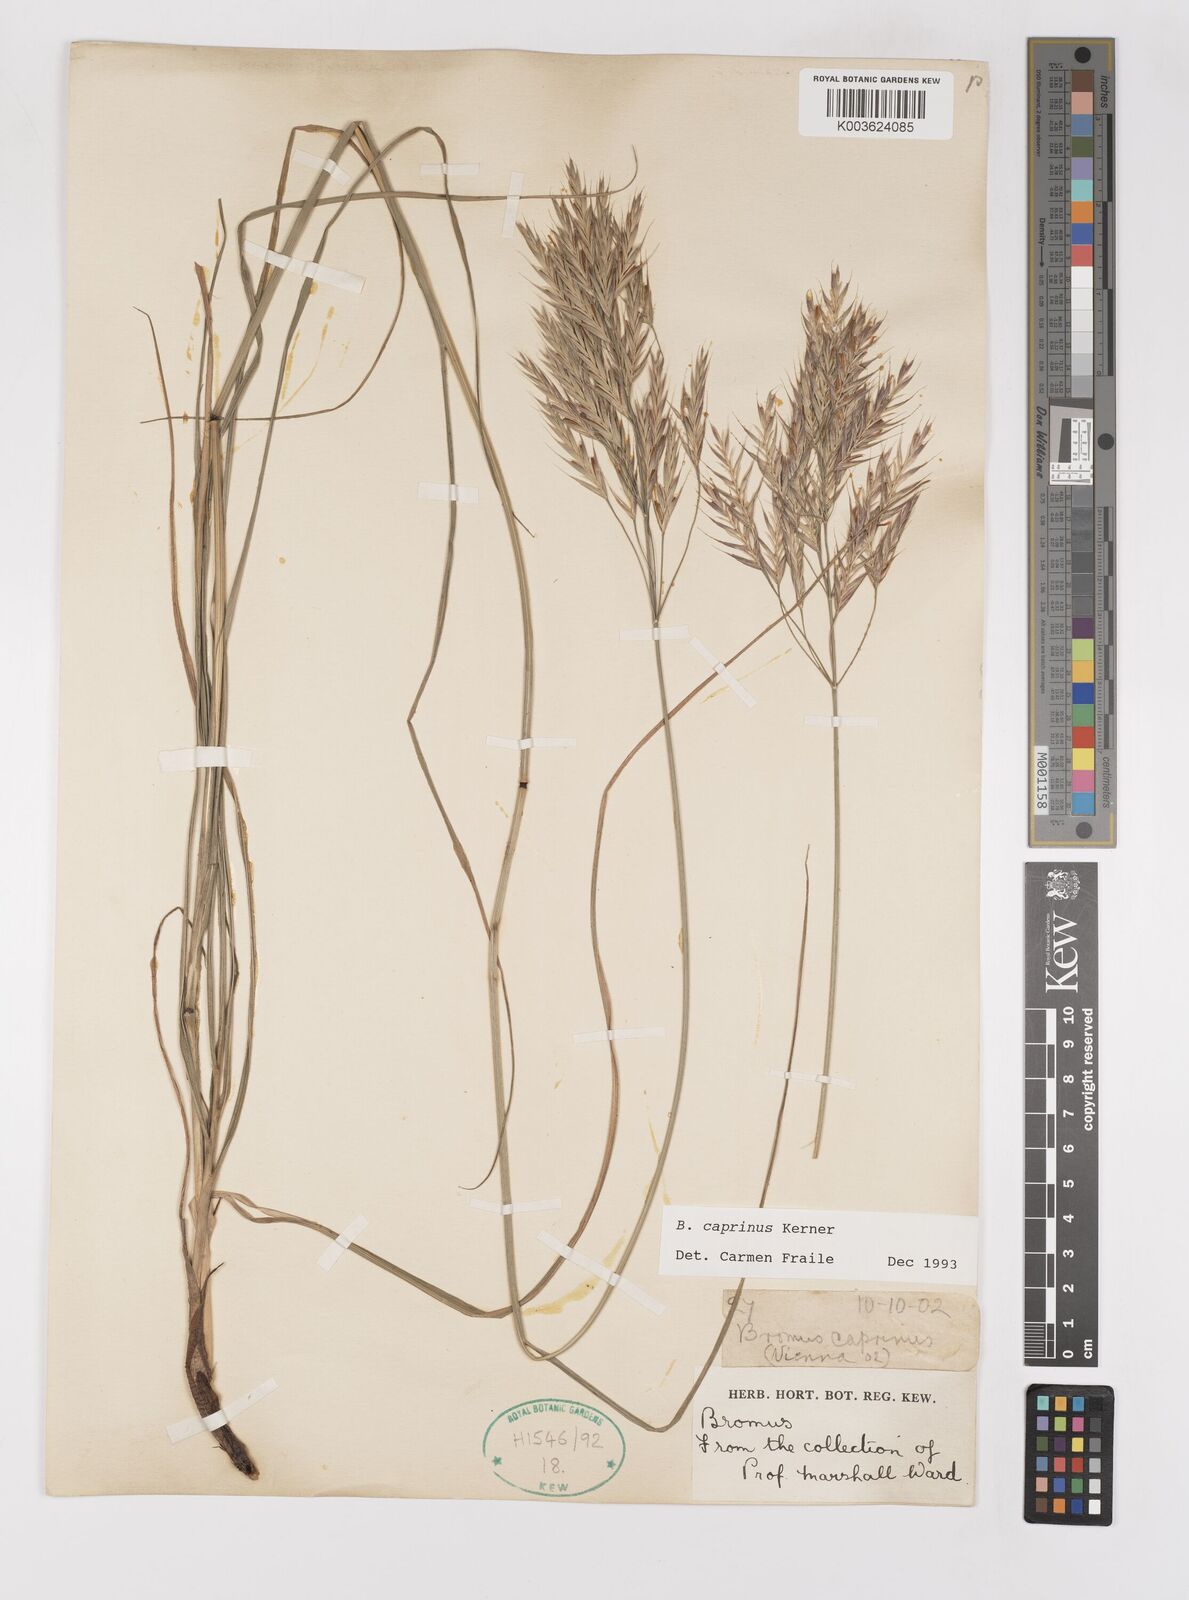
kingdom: Plantae
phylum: Tracheophyta
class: Liliopsida
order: Poales
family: Poaceae
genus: Bromus
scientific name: Bromus erectus
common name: Erect brome
